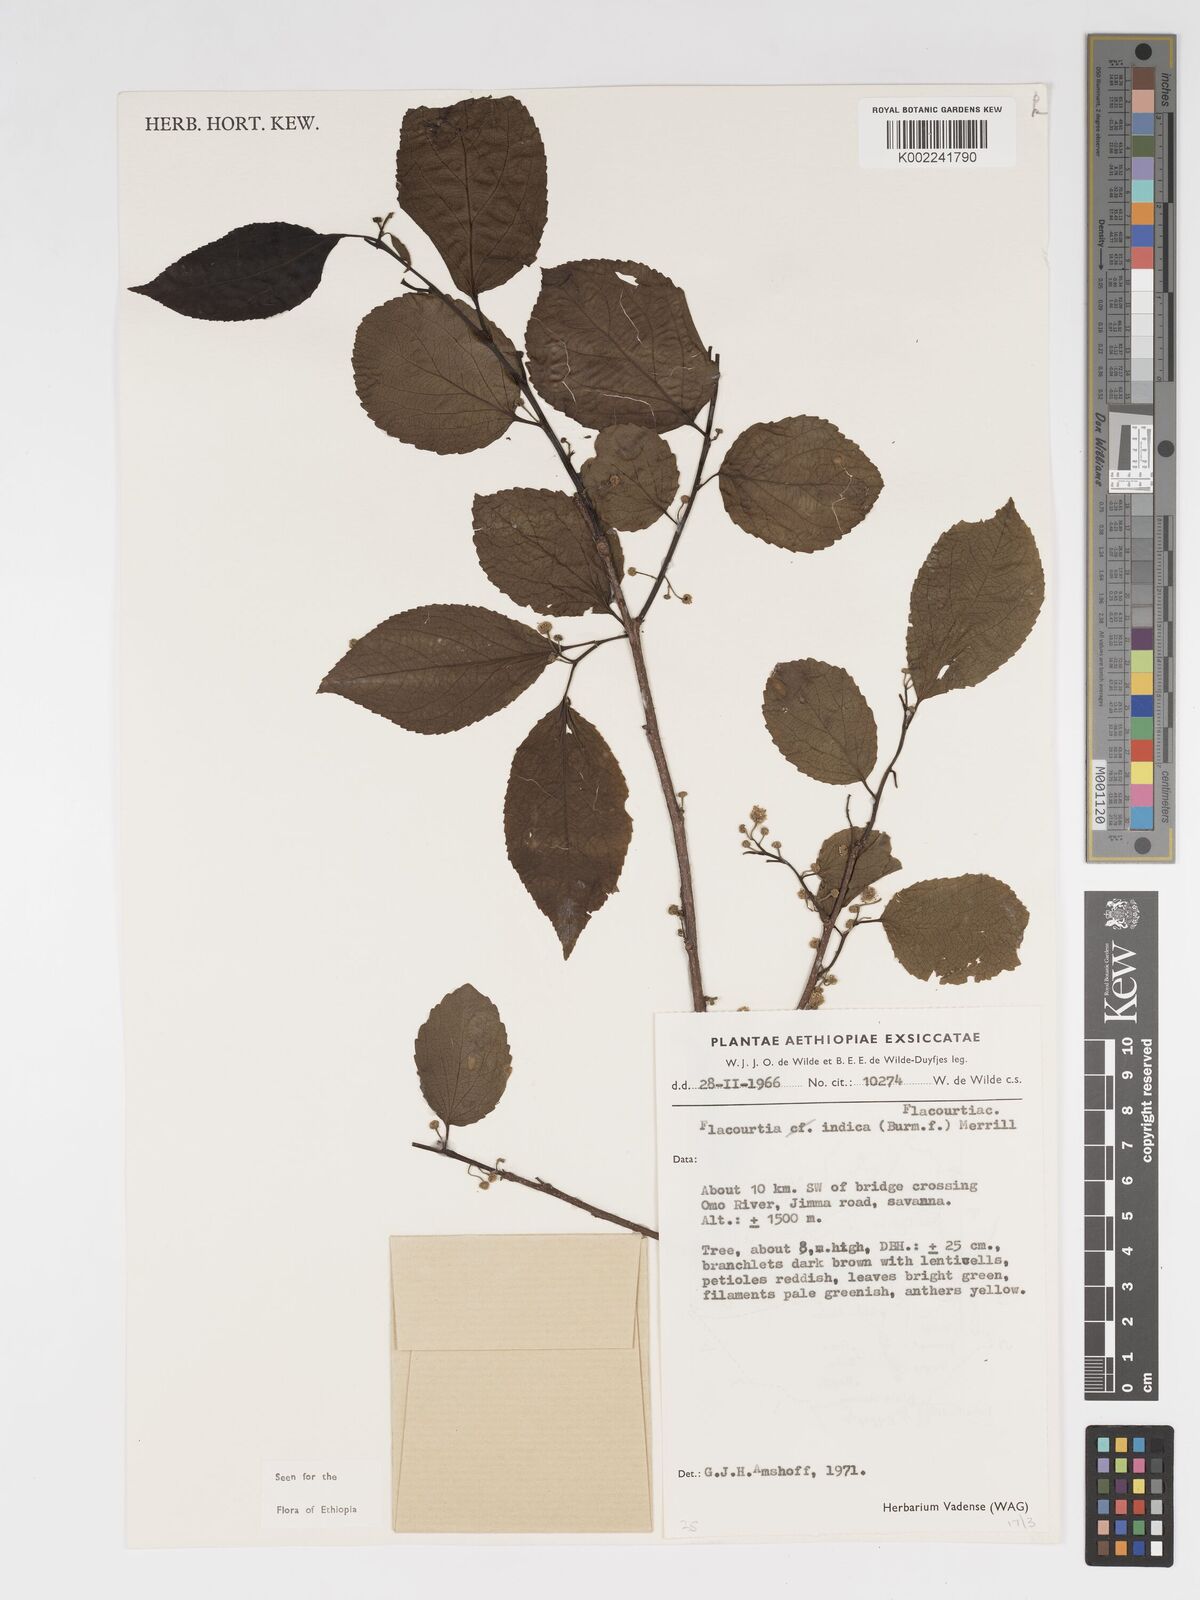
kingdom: Plantae
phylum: Tracheophyta
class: Magnoliopsida
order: Malpighiales
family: Salicaceae
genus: Flacourtia
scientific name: Flacourtia indica
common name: Governor's plum
